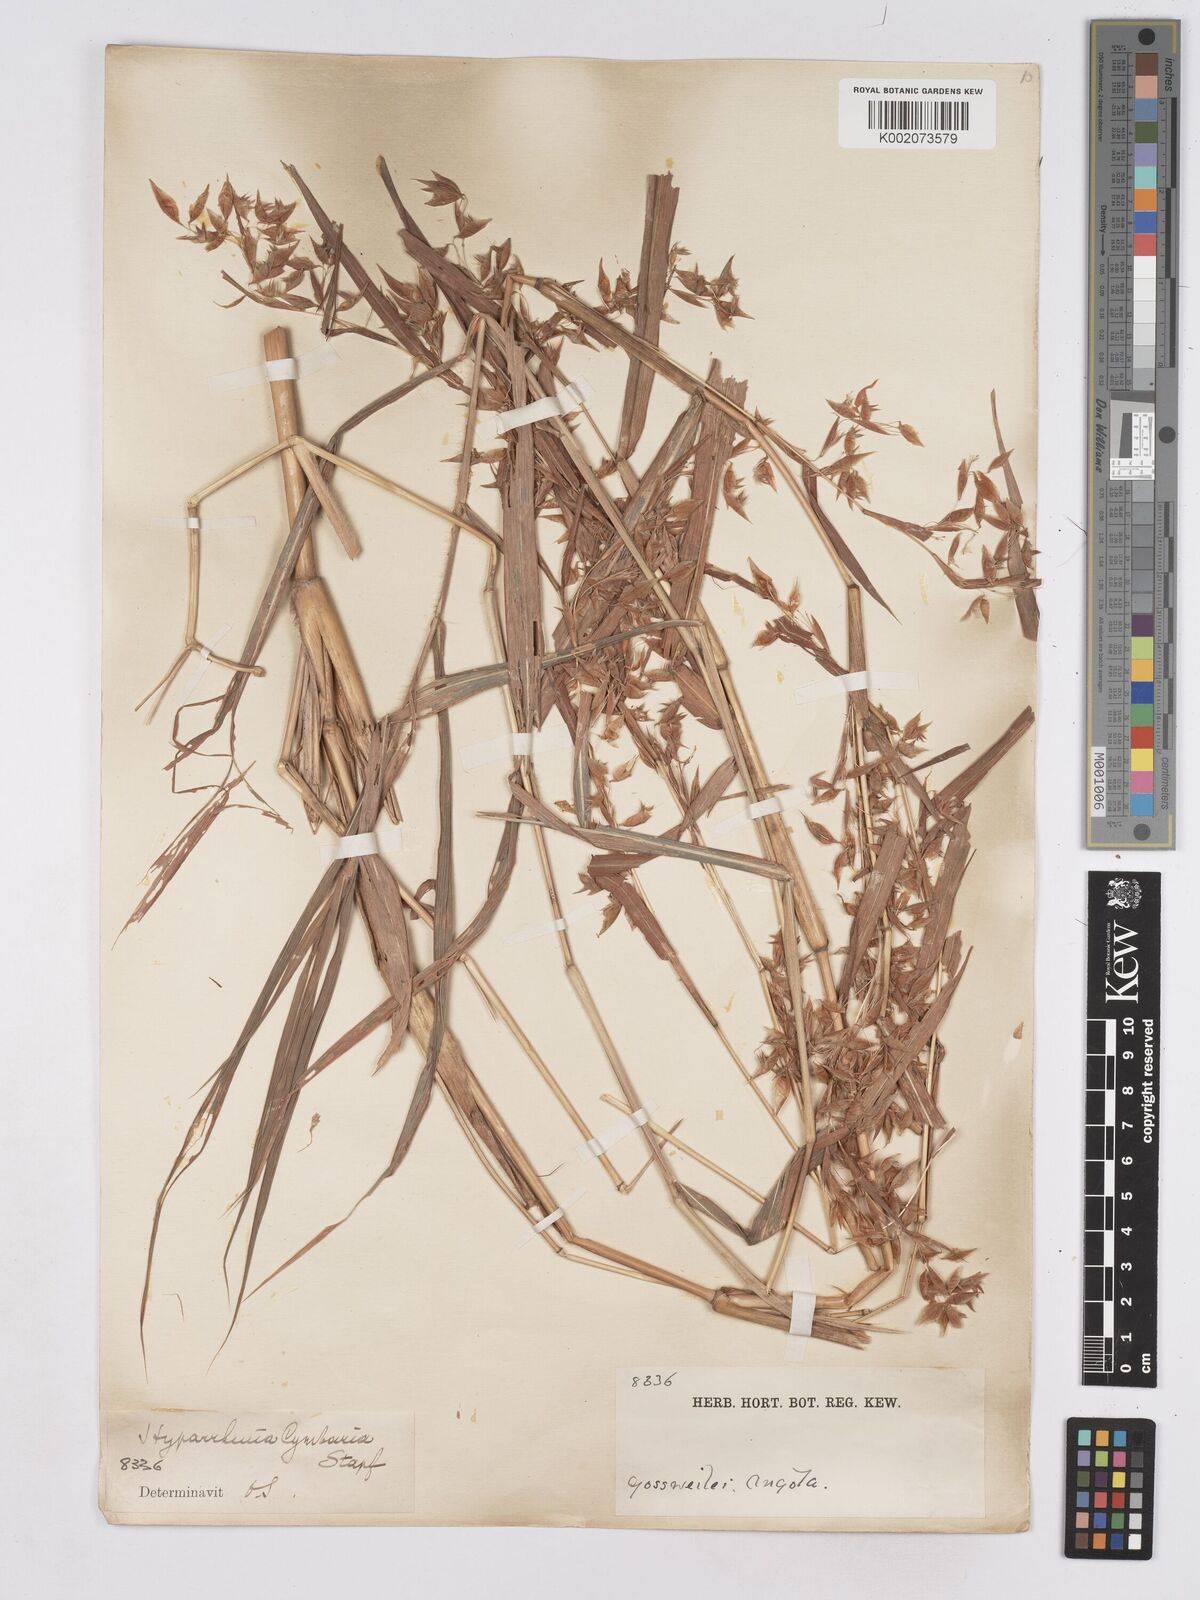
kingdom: Plantae
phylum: Tracheophyta
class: Liliopsida
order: Poales
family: Poaceae
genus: Hyparrhenia
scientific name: Hyparrhenia cymbaria
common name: Boat thatching grass
